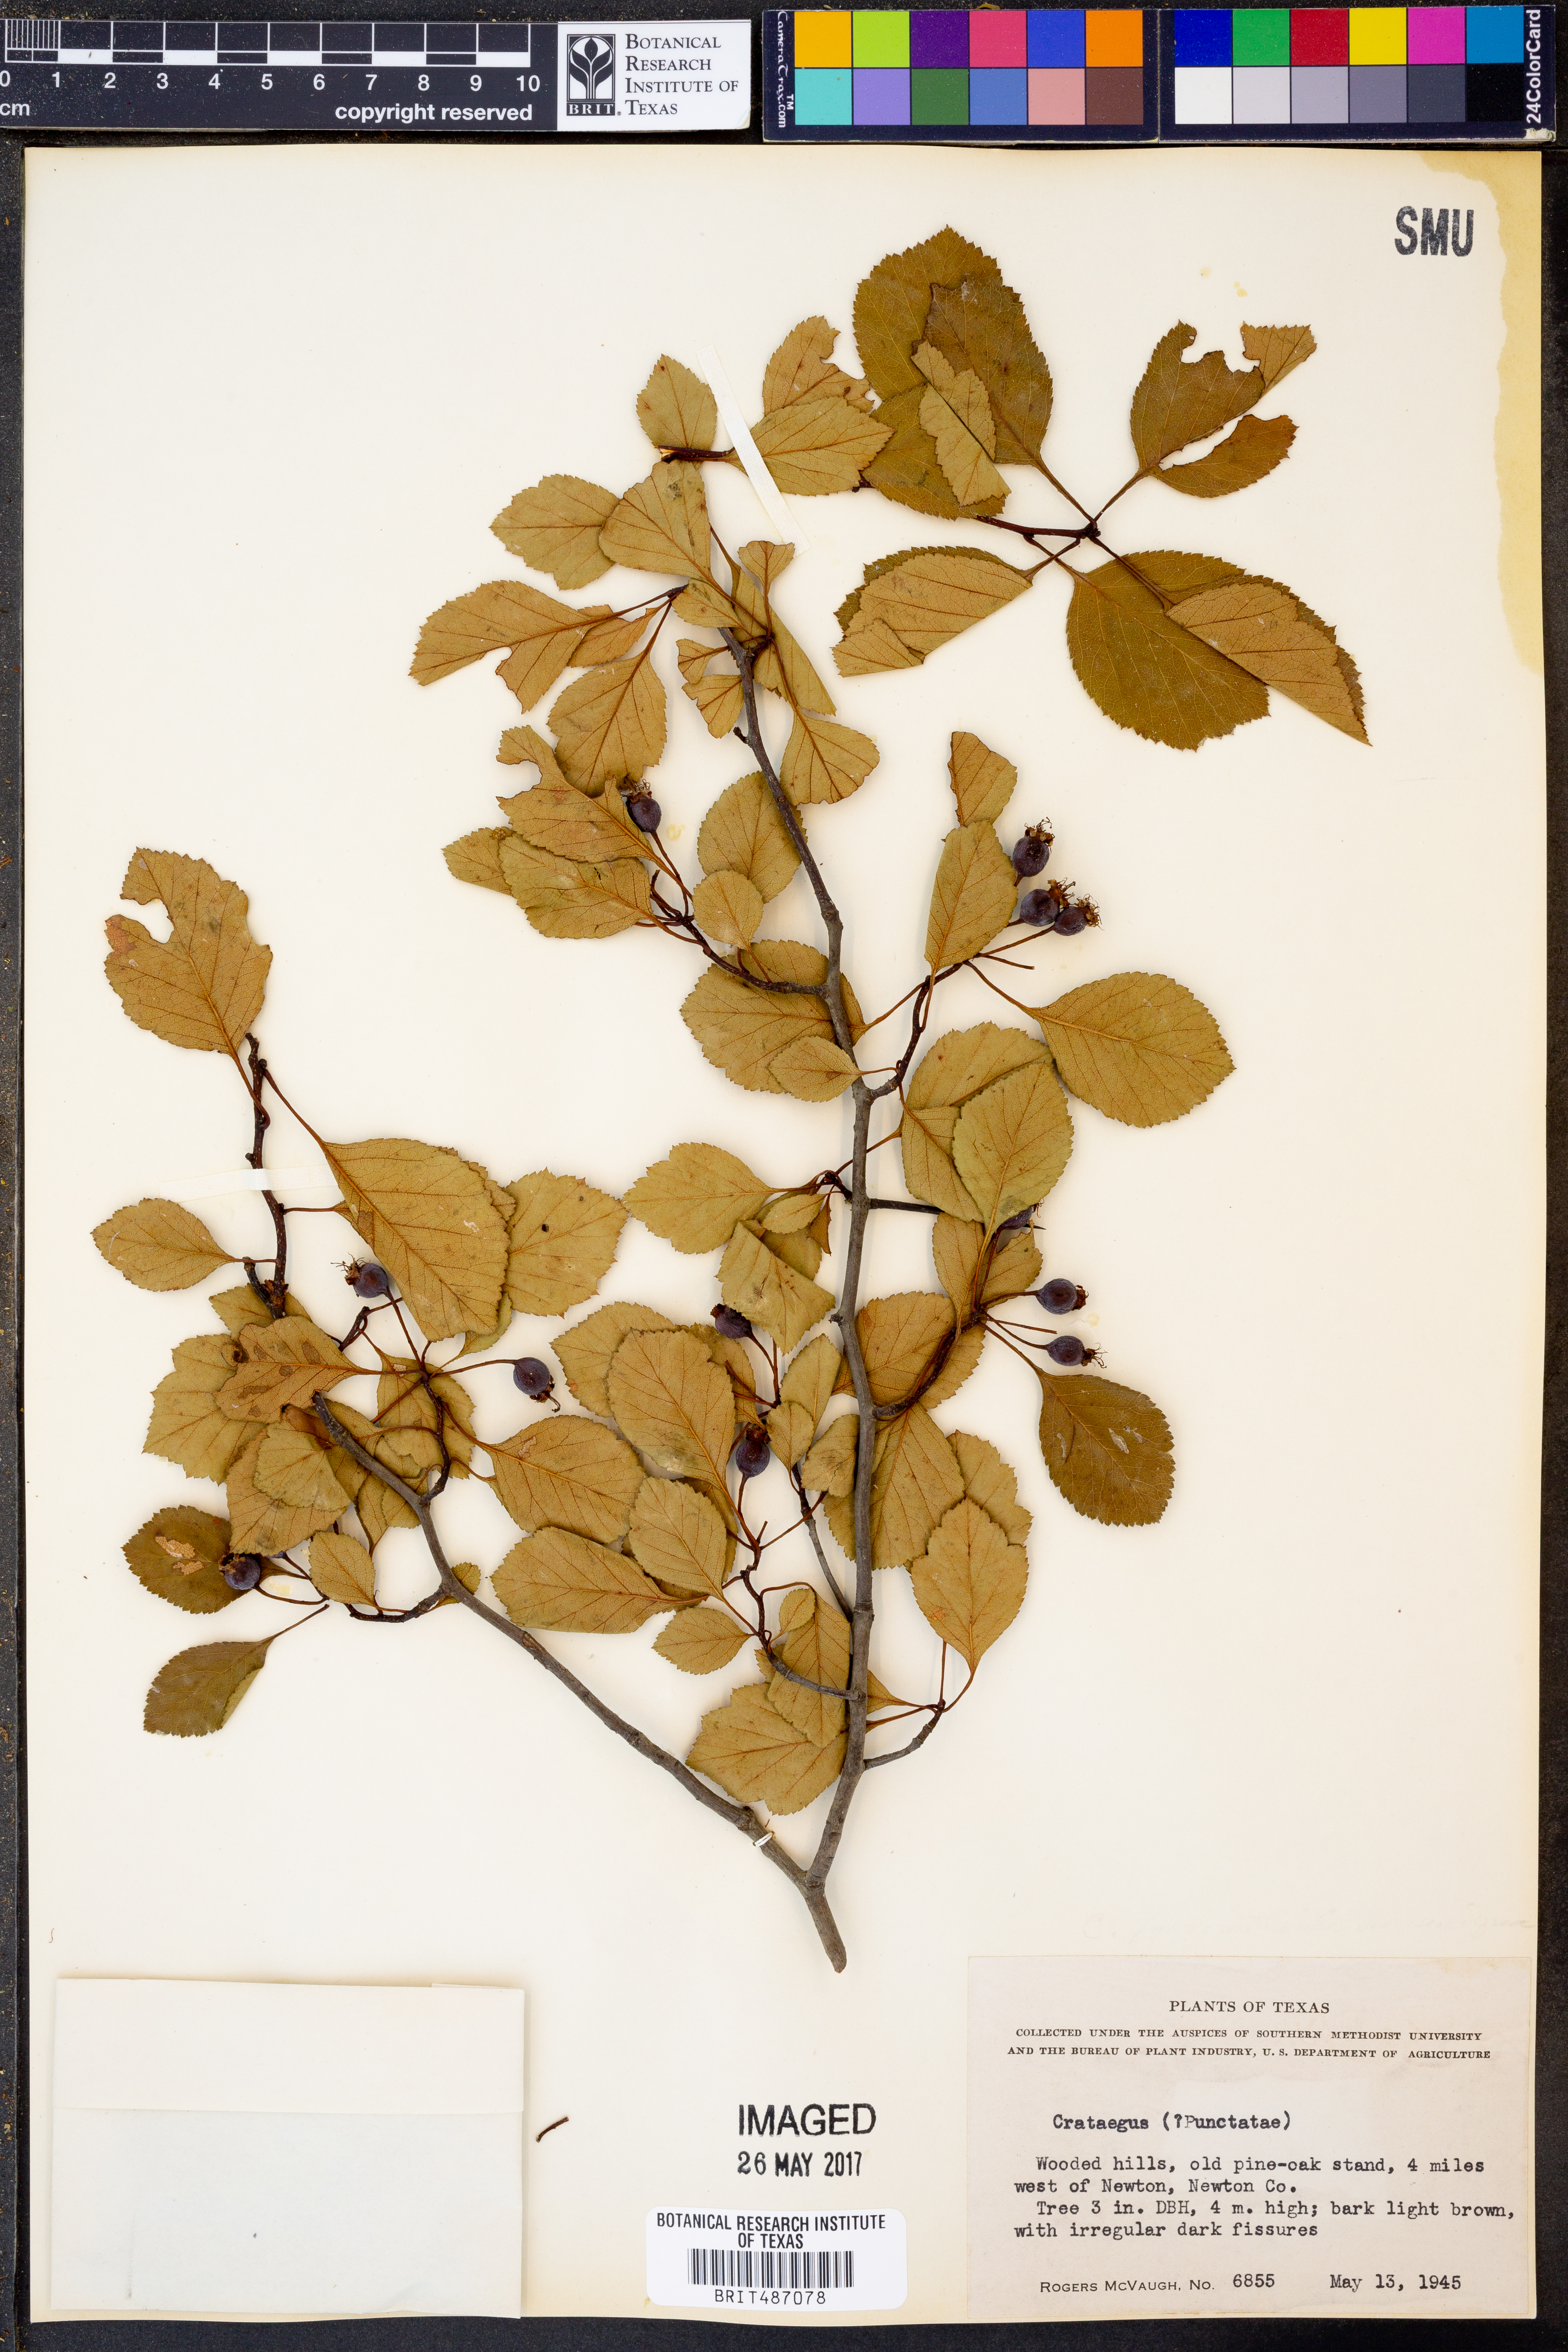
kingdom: Plantae
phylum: Tracheophyta
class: Magnoliopsida
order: Rosales
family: Rosaceae
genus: Crataegus
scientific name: Crataegus
